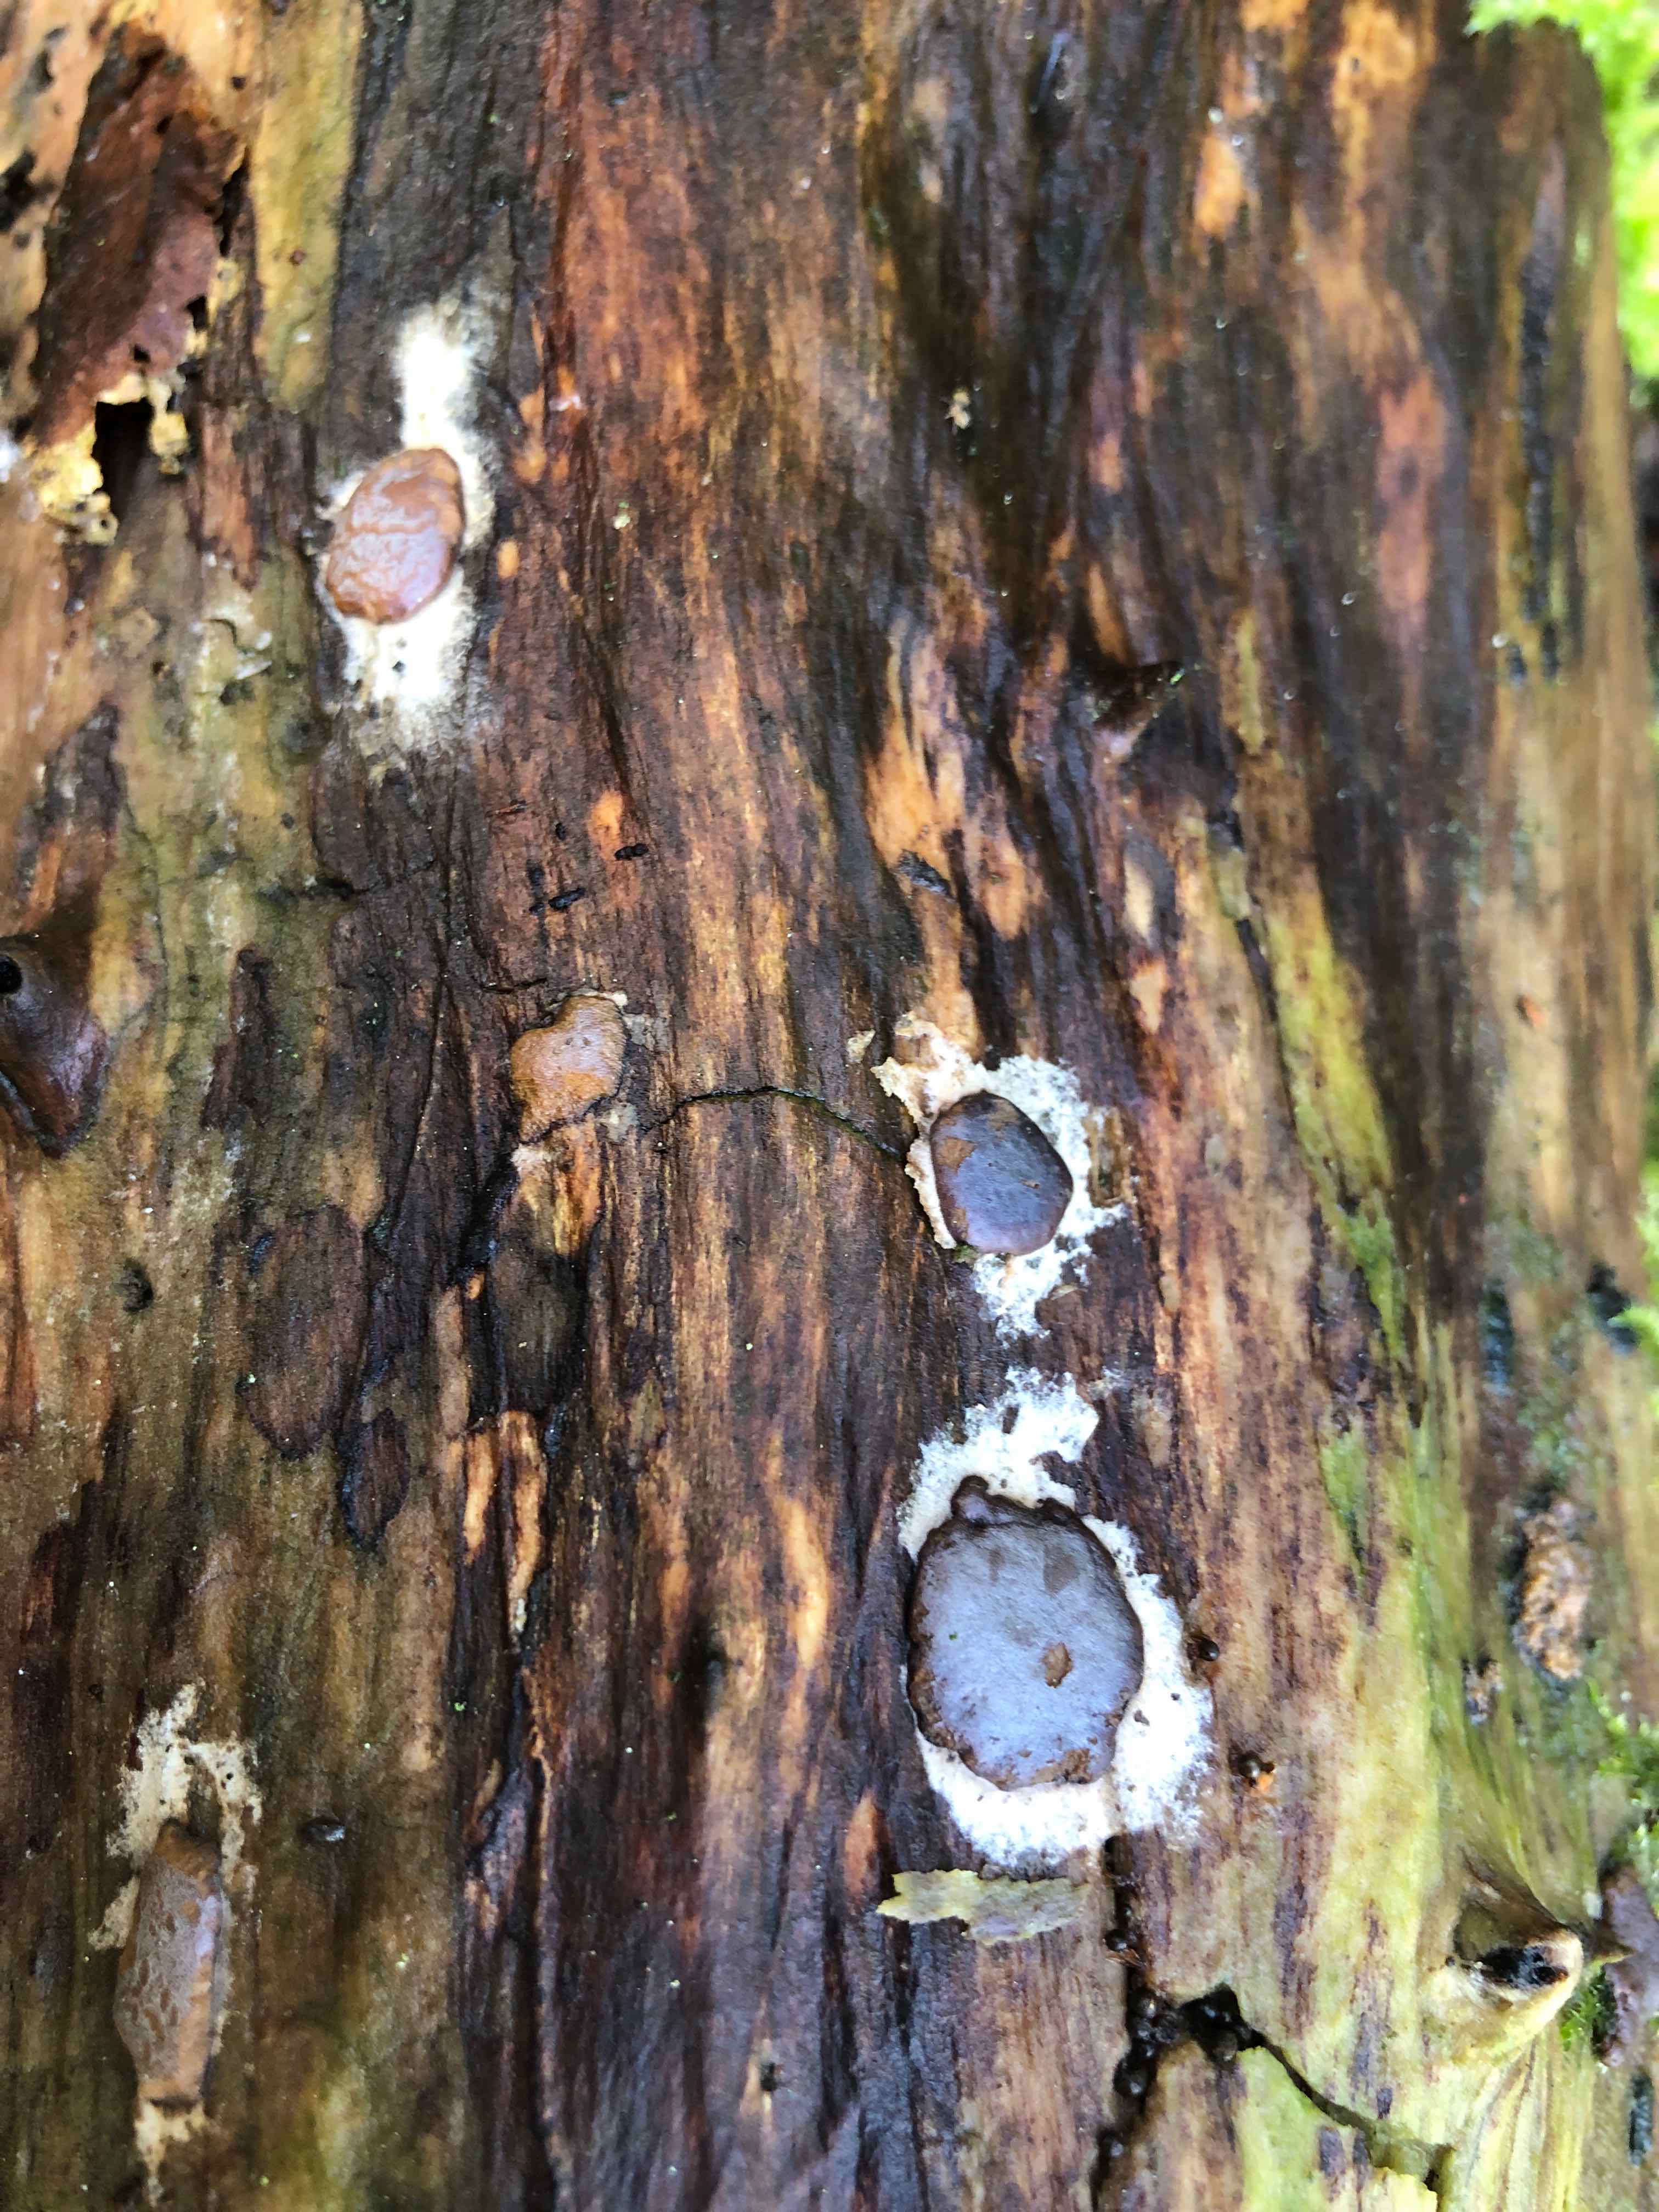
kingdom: Protozoa
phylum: Mycetozoa
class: Myxomycetes
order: Trichiales
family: Dictydiaethaliaceae
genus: Dictydiaethalium
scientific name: Dictydiaethalium plumbeum
